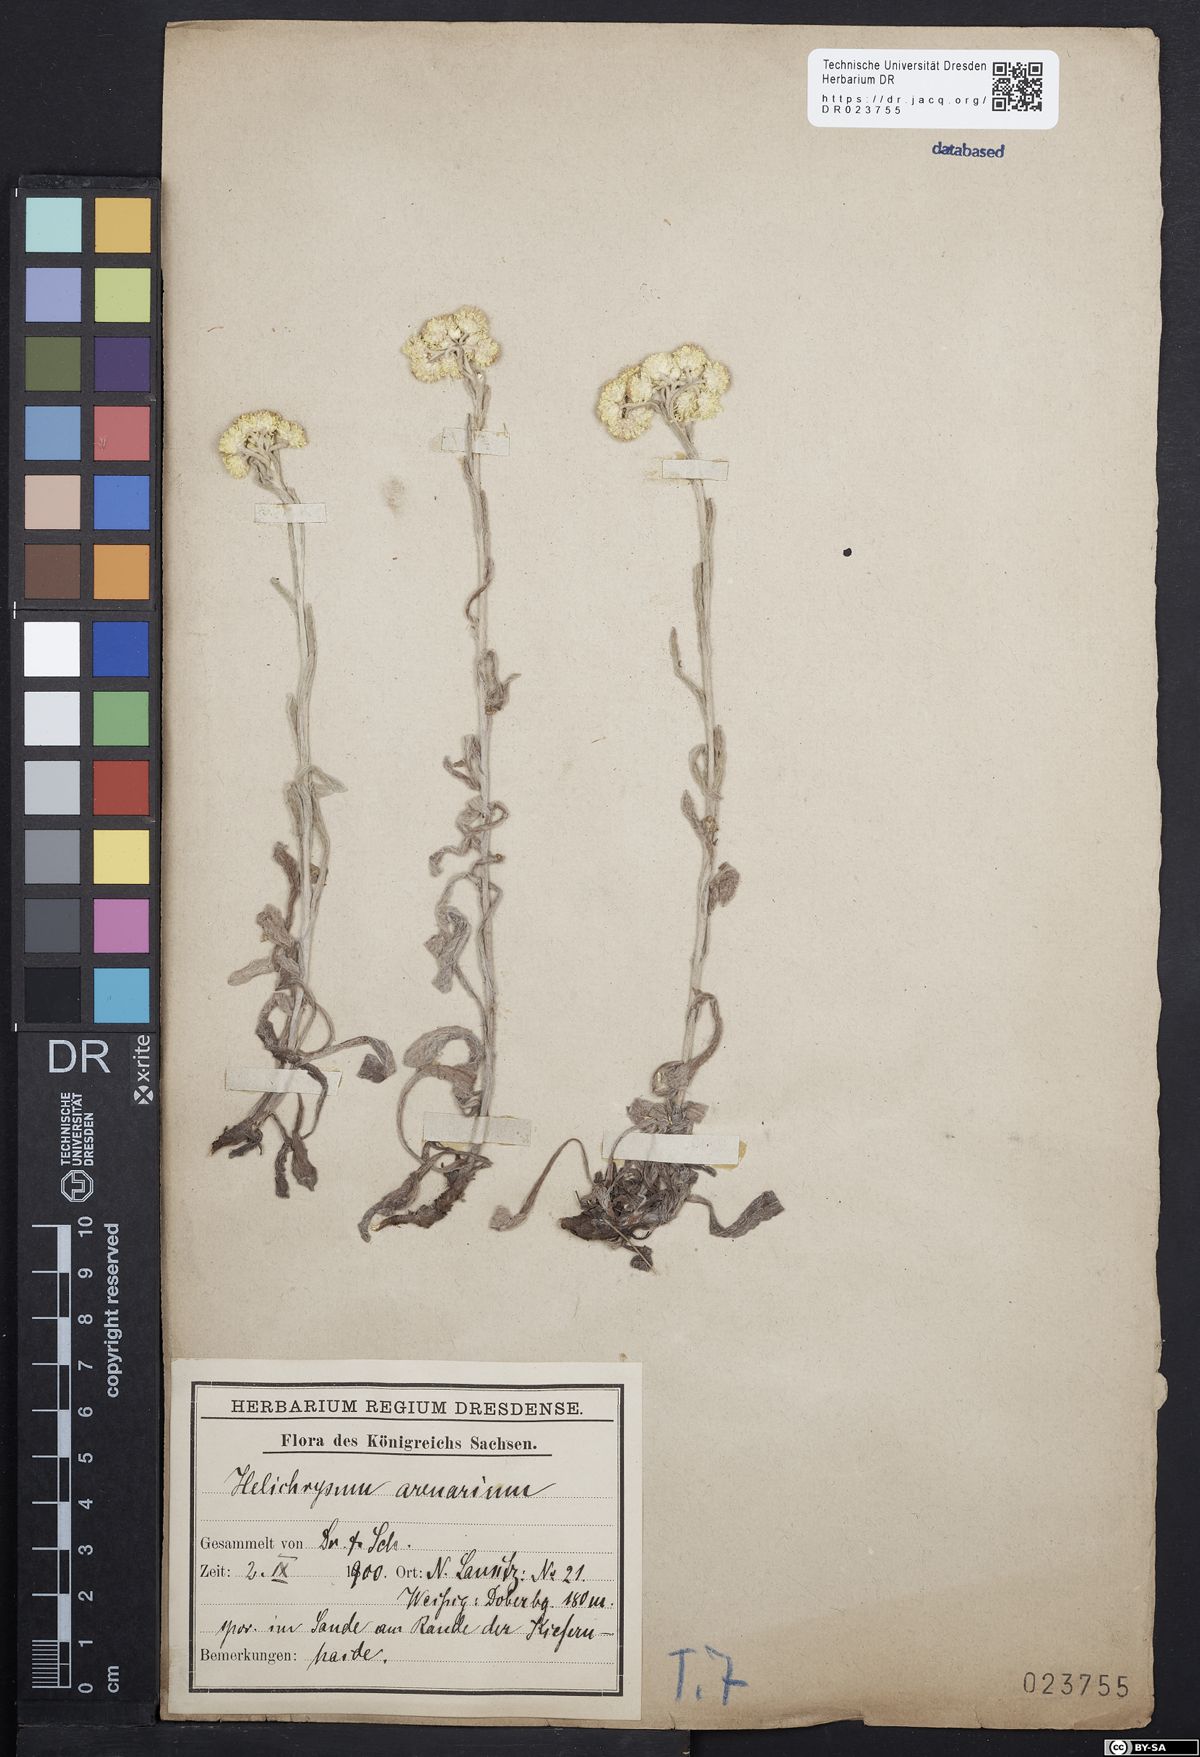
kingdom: Plantae
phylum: Tracheophyta
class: Magnoliopsida
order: Asterales
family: Asteraceae
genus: Helichrysum
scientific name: Helichrysum arenarium
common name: Strawflower
